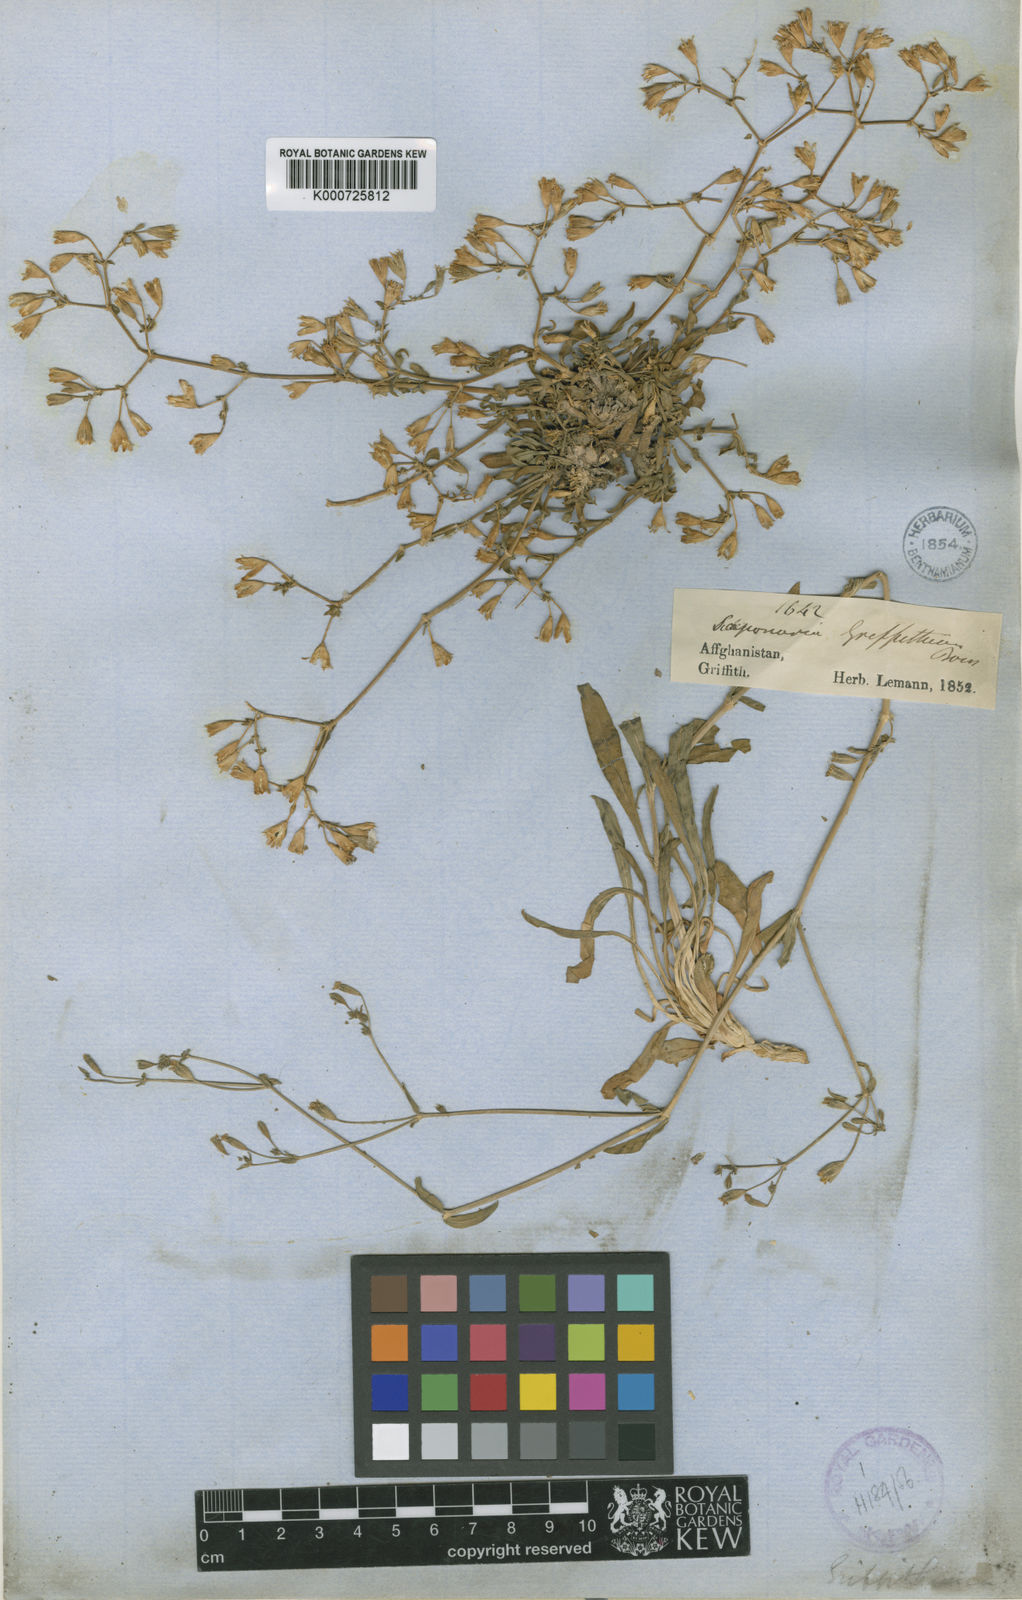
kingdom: Plantae
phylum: Tracheophyta
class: Magnoliopsida
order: Caryophyllales
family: Caryophyllaceae
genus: Saponaria
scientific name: Saponaria griffithiana
